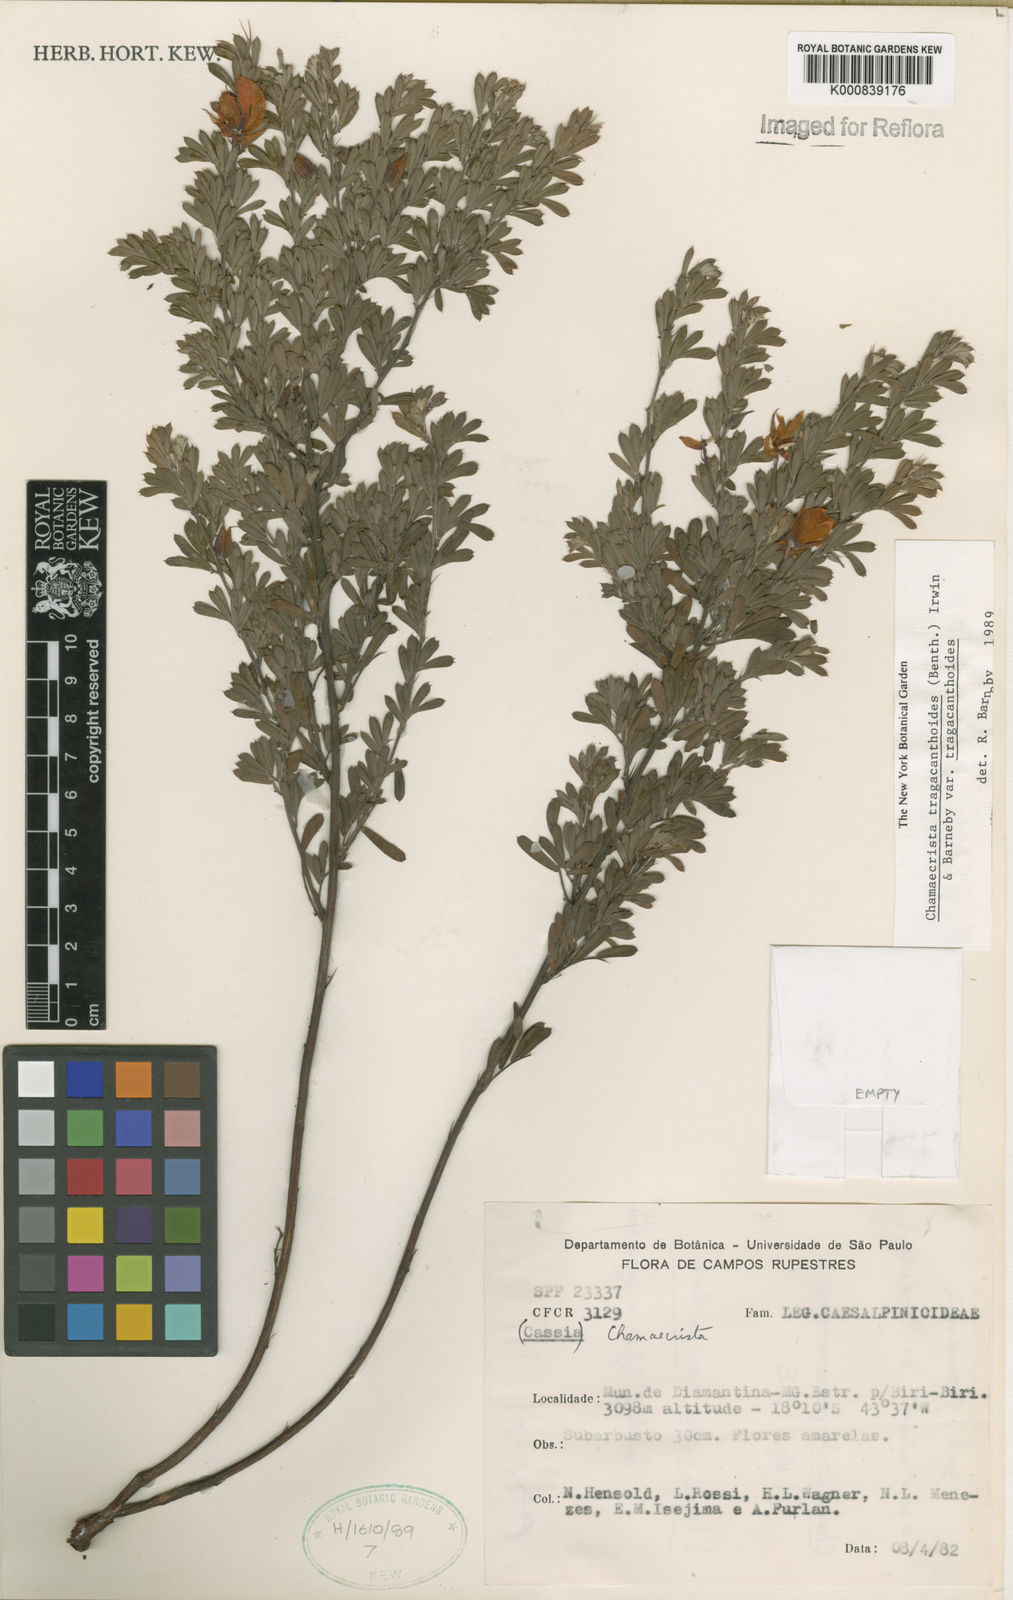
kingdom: Plantae
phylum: Tracheophyta
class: Magnoliopsida
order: Fabales
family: Fabaceae
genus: Chamaecrista
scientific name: Chamaecrista tragacanthoides
